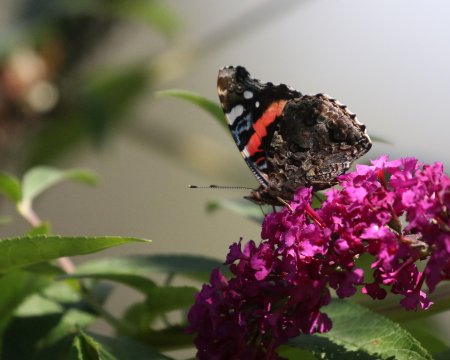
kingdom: Animalia
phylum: Arthropoda
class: Insecta
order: Lepidoptera
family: Nymphalidae
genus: Vanessa
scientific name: Vanessa atalanta
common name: Red Admiral
